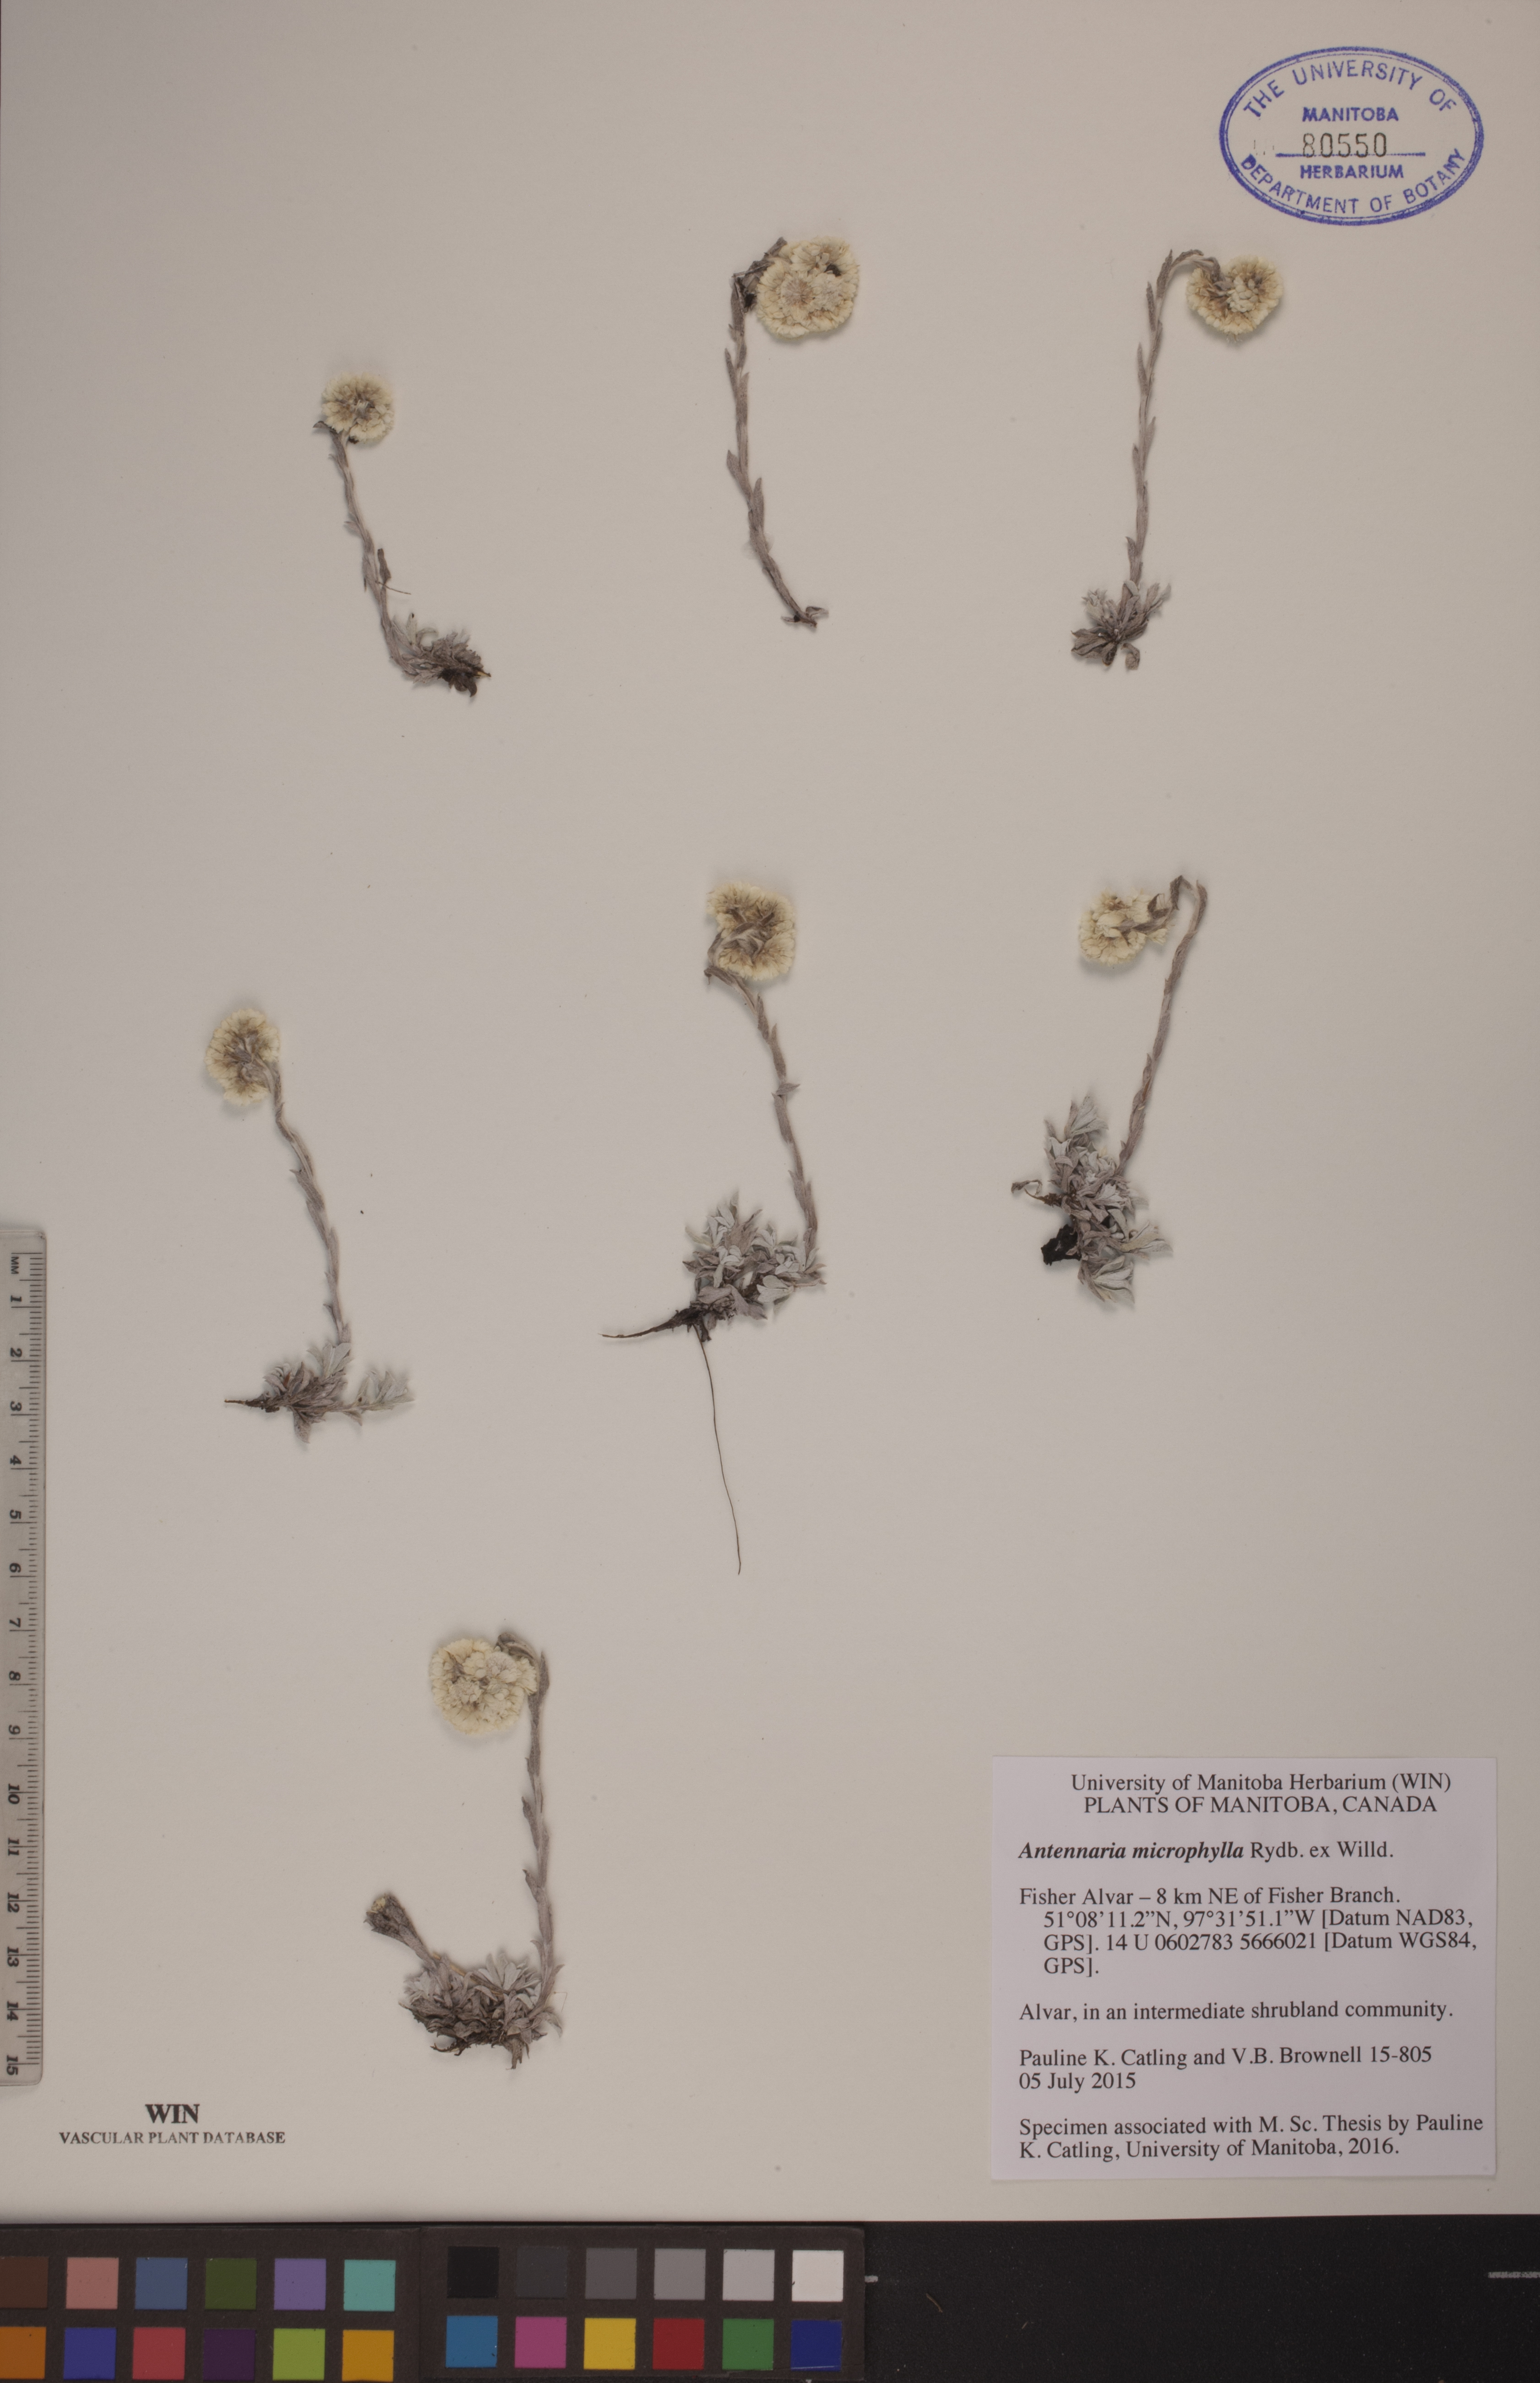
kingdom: Plantae
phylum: Tracheophyta
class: Magnoliopsida
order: Asterales
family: Asteraceae
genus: Antennaria
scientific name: Antennaria microphylla
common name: Littleleaf pussytoes
